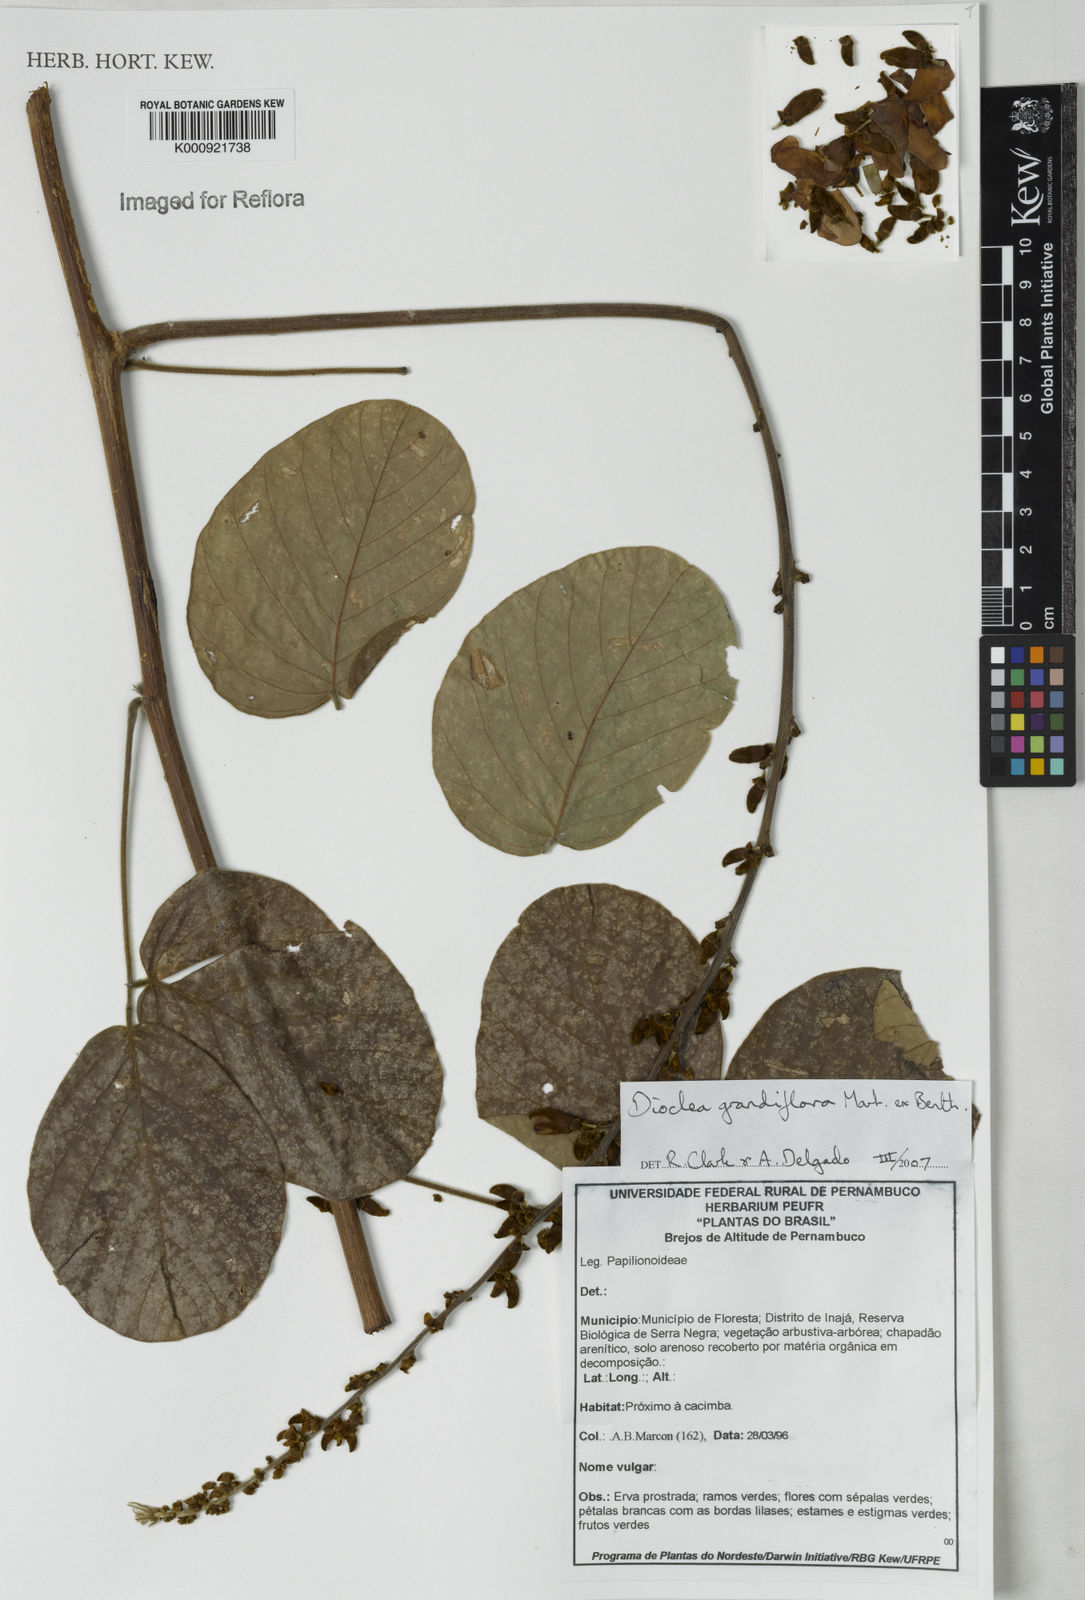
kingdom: Plantae
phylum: Tracheophyta
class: Magnoliopsida
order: Fabales
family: Fabaceae
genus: Macropsychanthus
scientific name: Macropsychanthus grandiflorus
